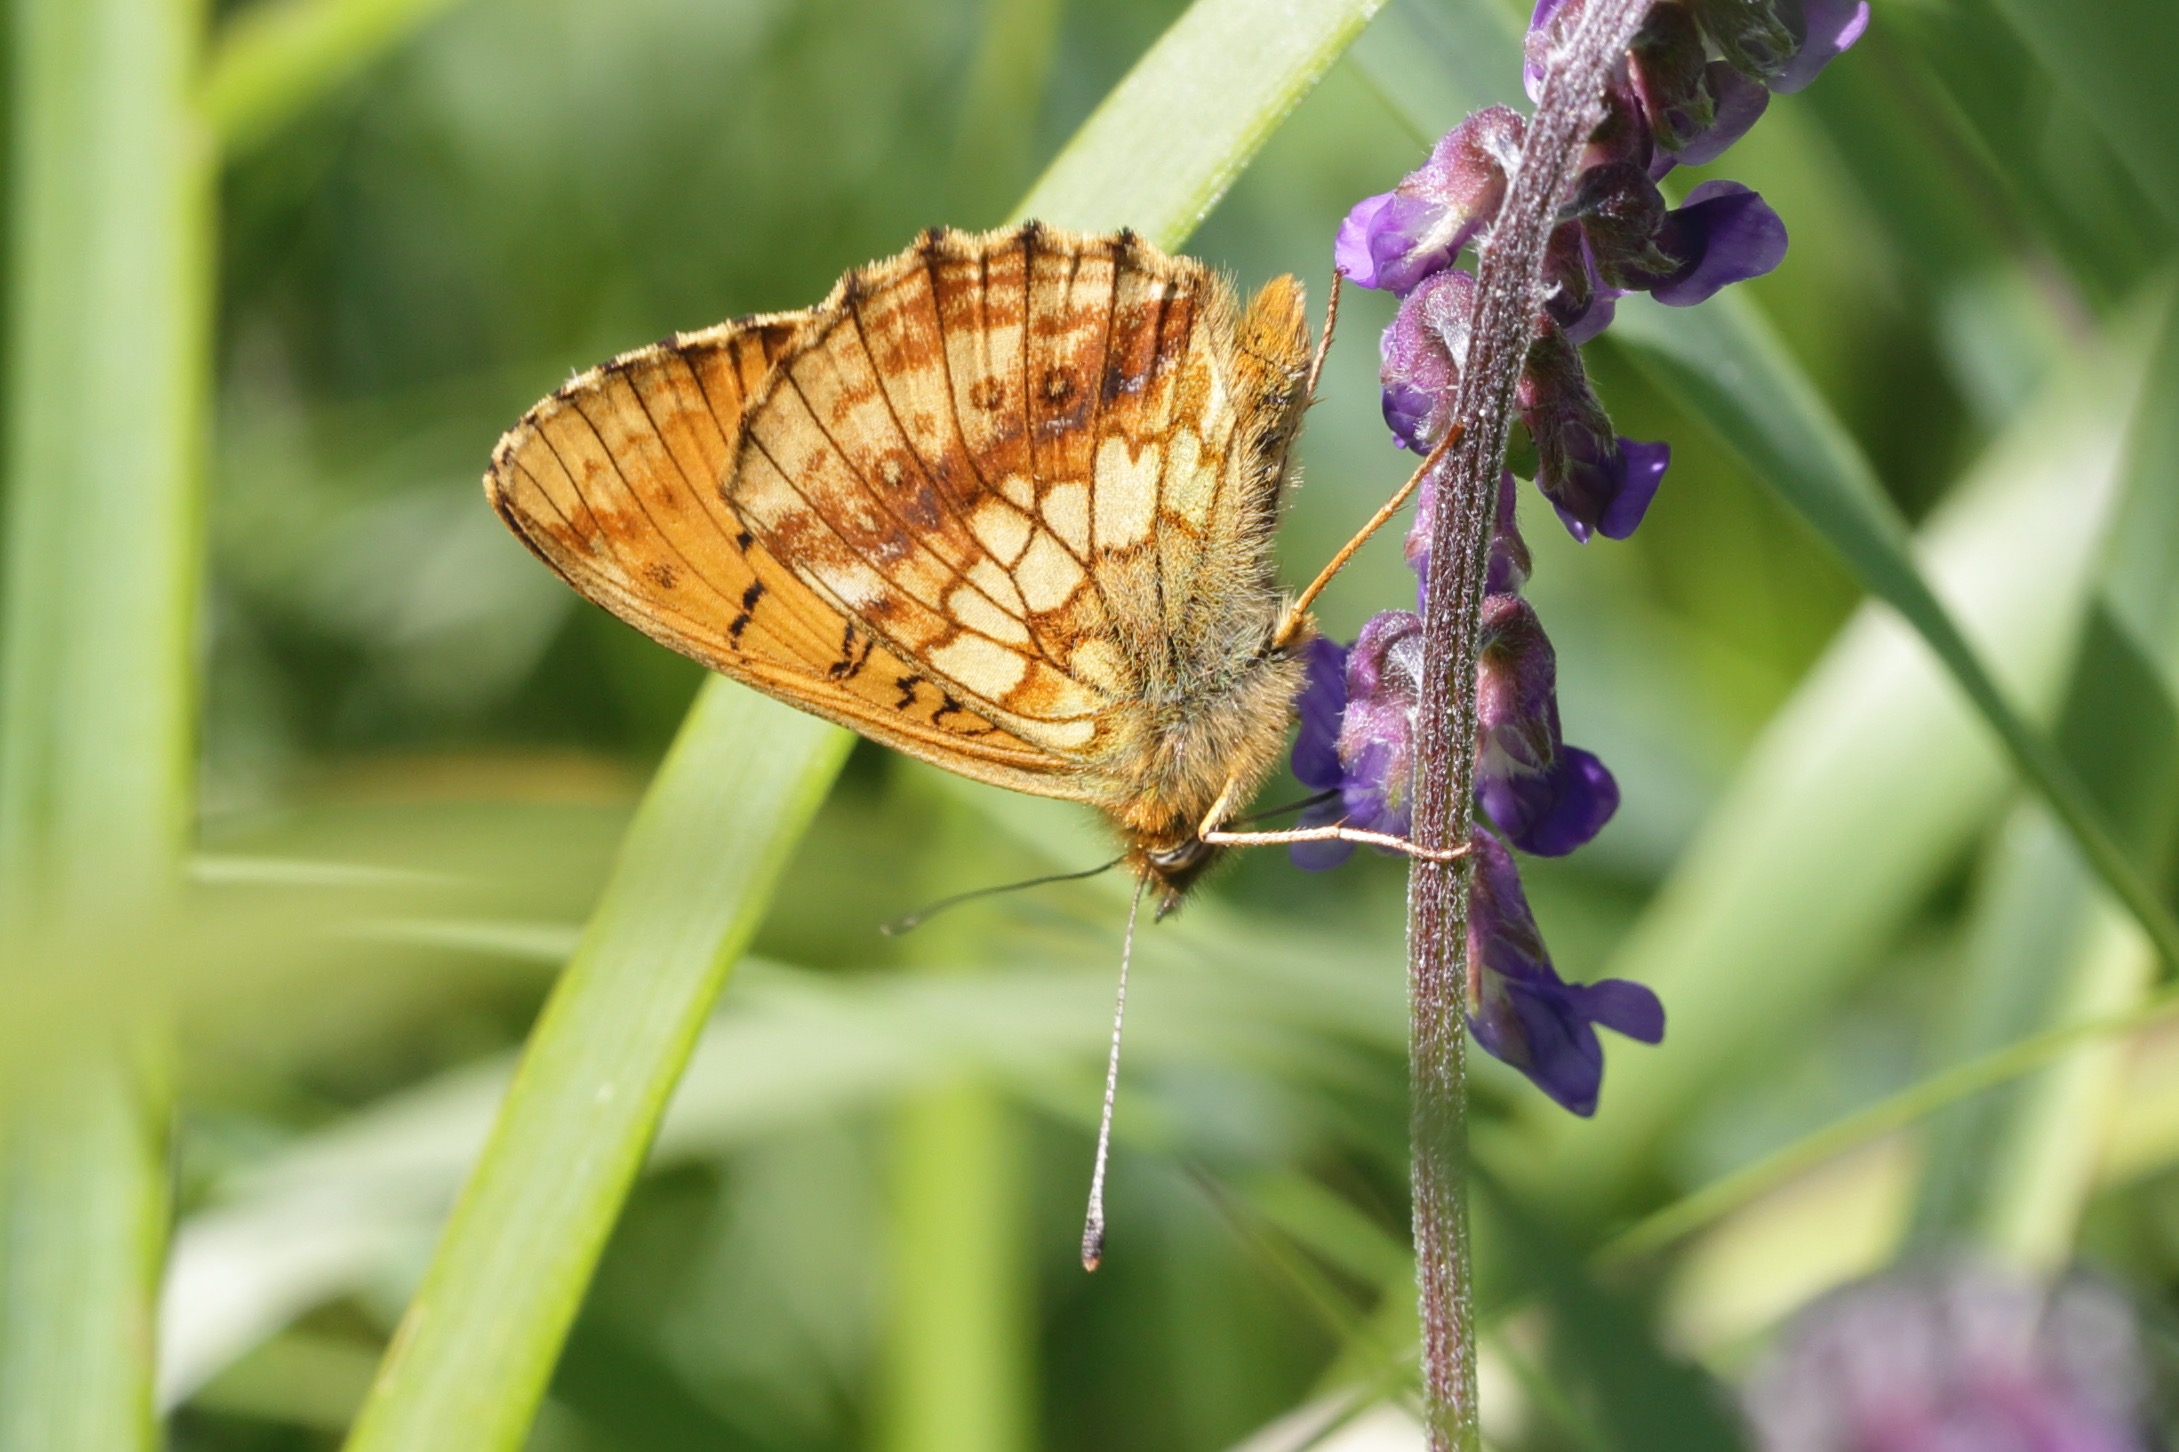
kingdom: Animalia
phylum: Arthropoda
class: Insecta
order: Lepidoptera
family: Nymphalidae
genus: Brenthis
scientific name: Brenthis ino
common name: Engperlemorsommerfugl
